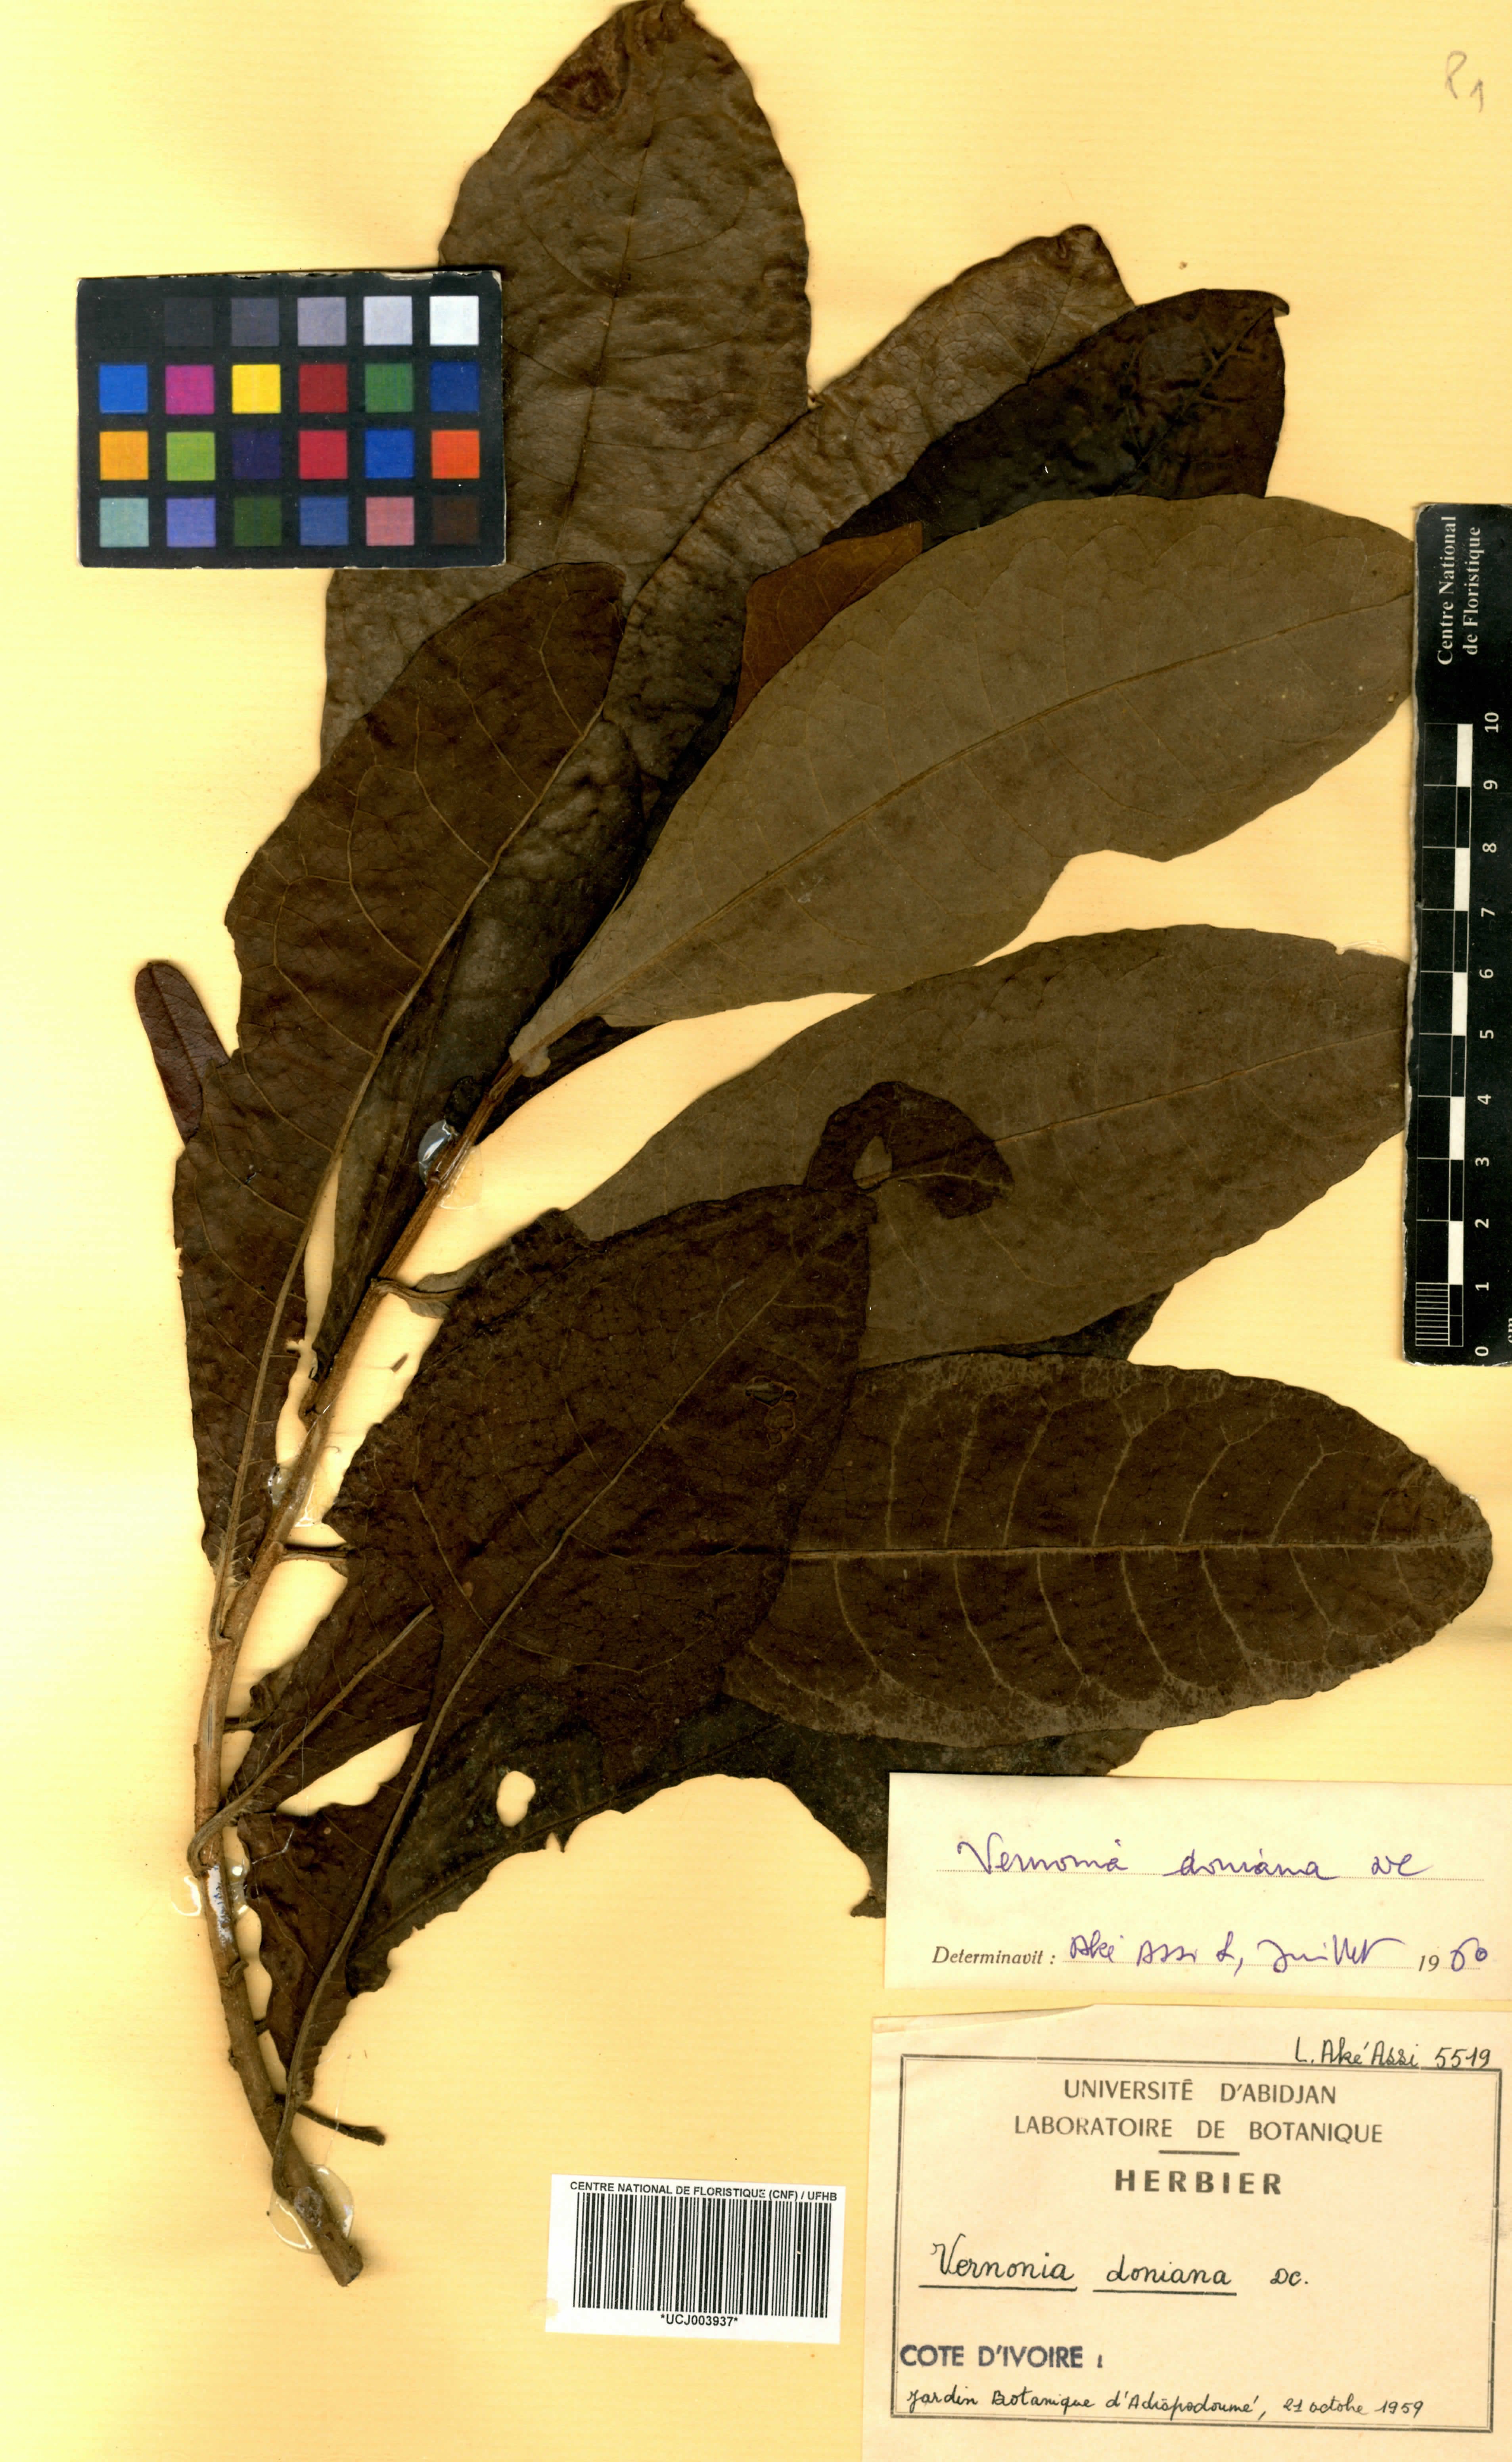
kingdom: Plantae
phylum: Tracheophyta
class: Magnoliopsida
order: Asterales
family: Asteraceae
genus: Brenandendron
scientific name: Brenandendron donianum
